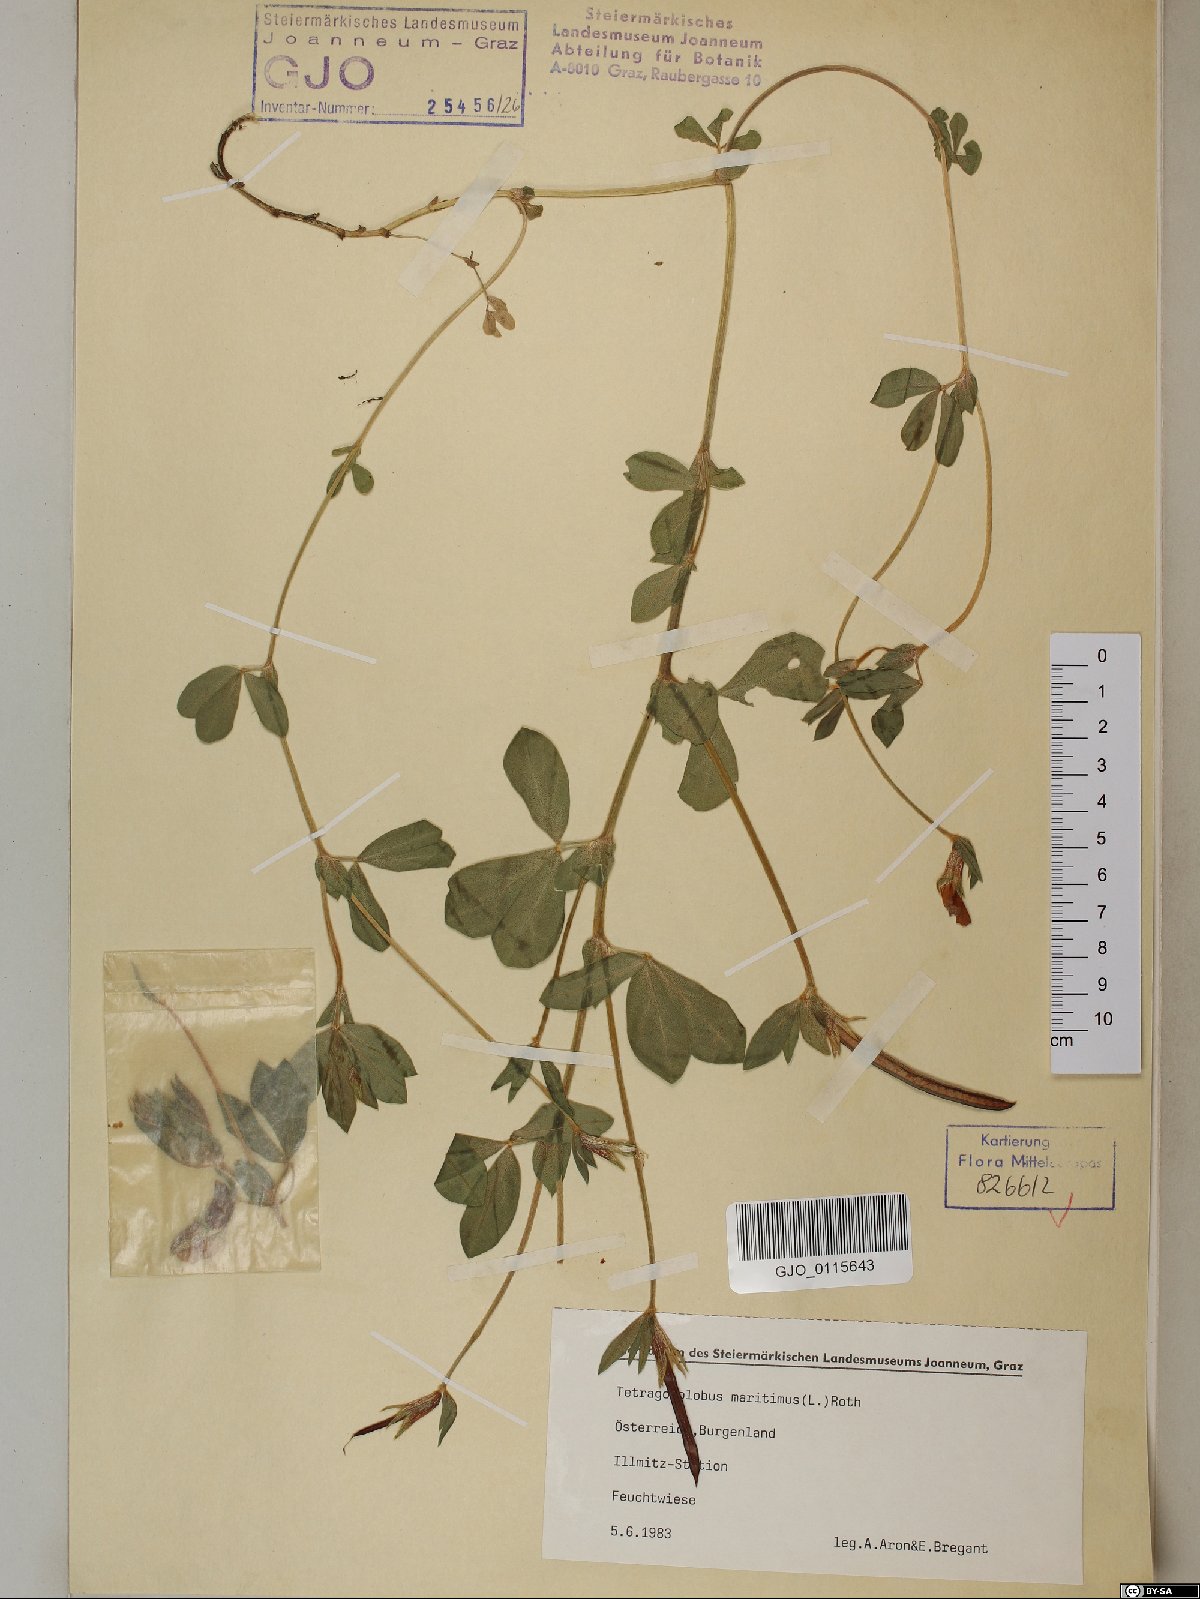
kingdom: Plantae
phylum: Tracheophyta
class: Magnoliopsida
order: Fabales
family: Fabaceae
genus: Lotus
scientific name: Lotus maritimus
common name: Dragon's-teeth
